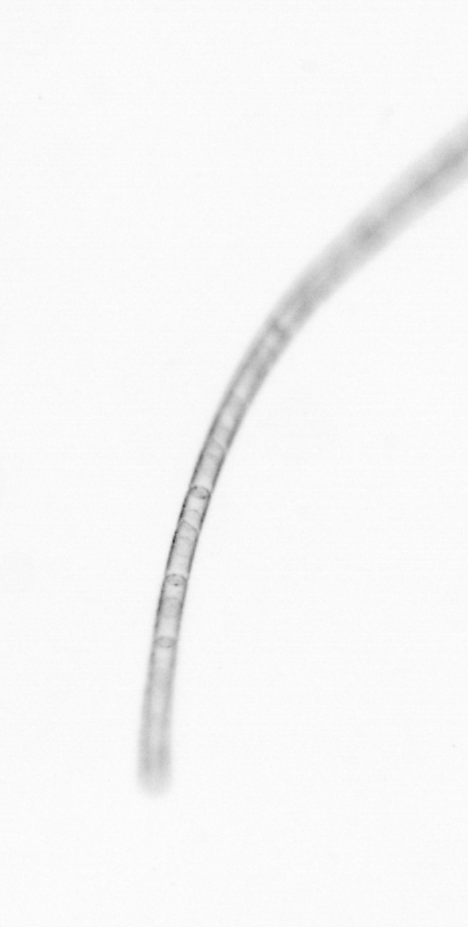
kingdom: Chromista
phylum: Ochrophyta
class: Bacillariophyceae
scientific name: Bacillariophyceae
